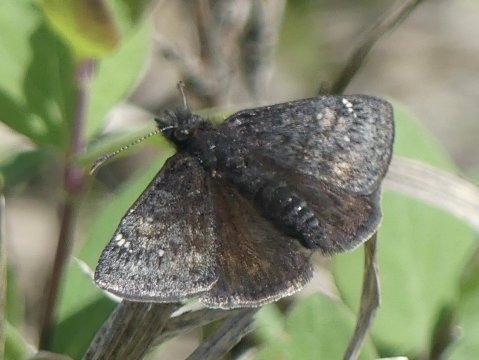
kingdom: Animalia
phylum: Arthropoda
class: Insecta
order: Lepidoptera
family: Hesperiidae
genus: Gesta
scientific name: Gesta
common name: Persius Duskywing
